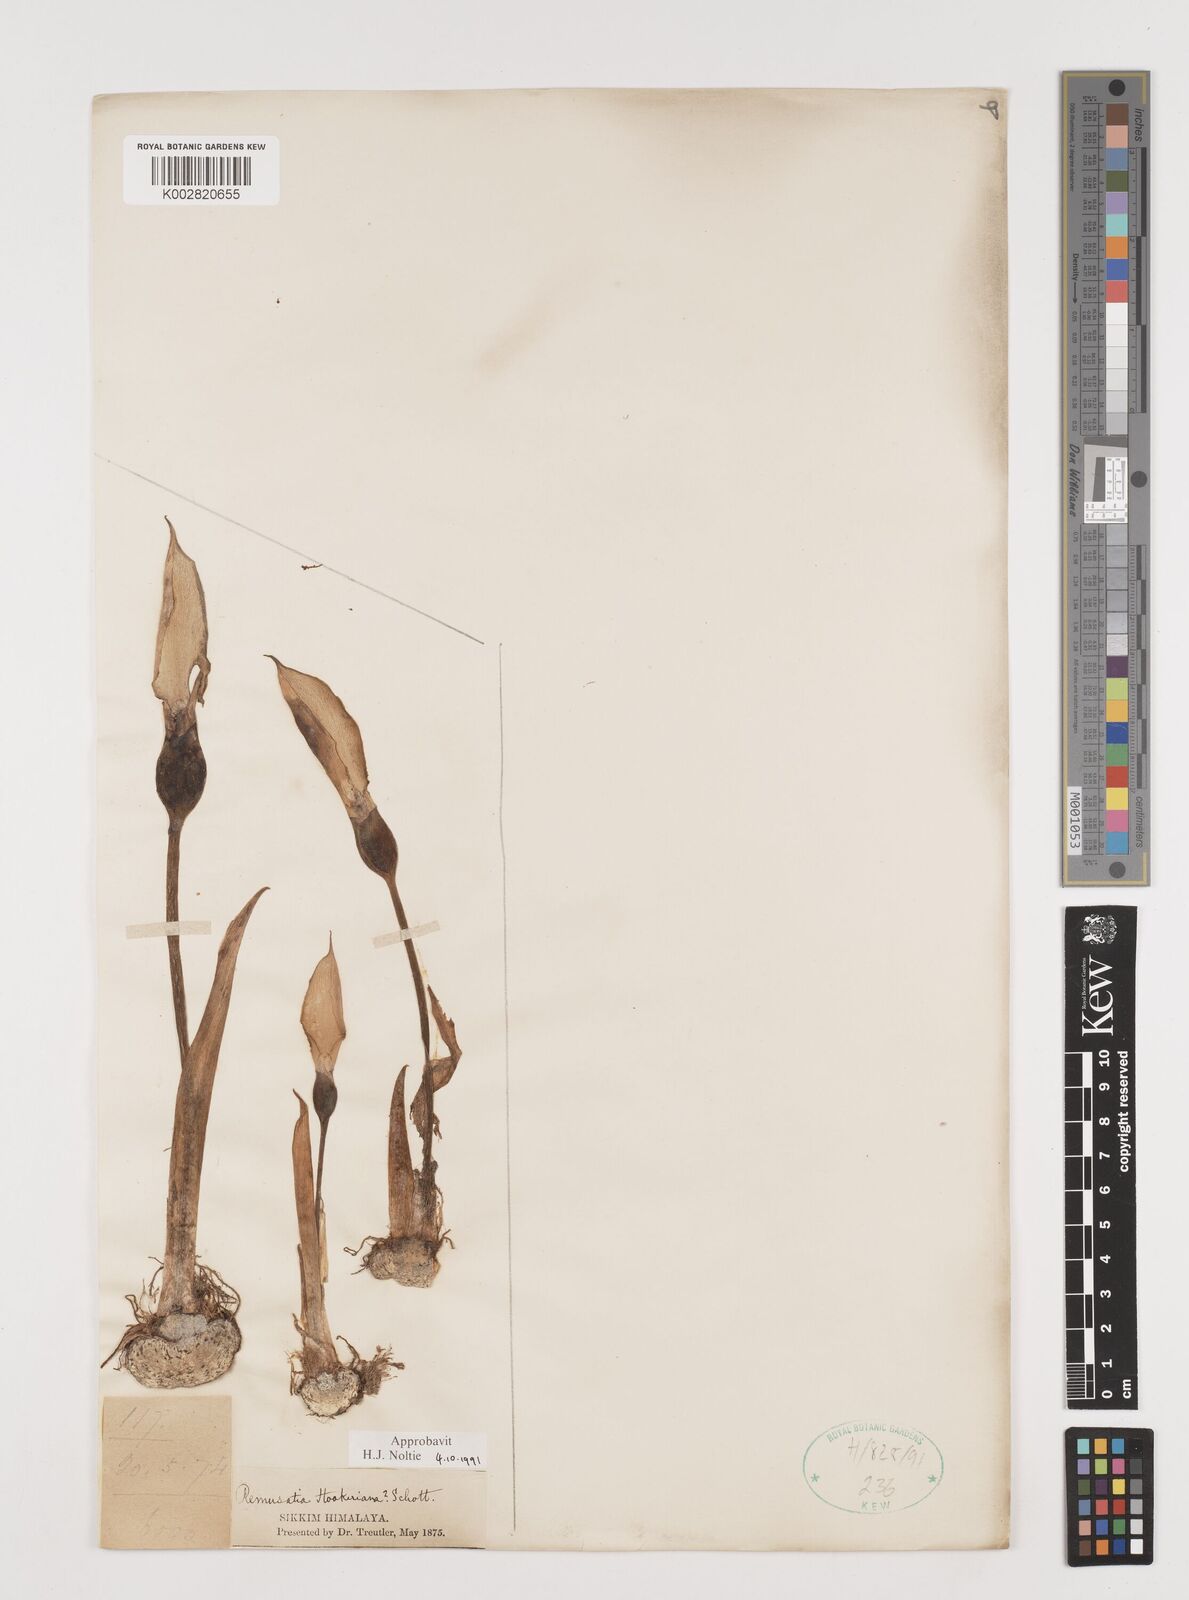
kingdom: Plantae
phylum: Tracheophyta
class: Liliopsida
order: Alismatales
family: Araceae
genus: Remusatia
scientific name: Remusatia hookeriana
